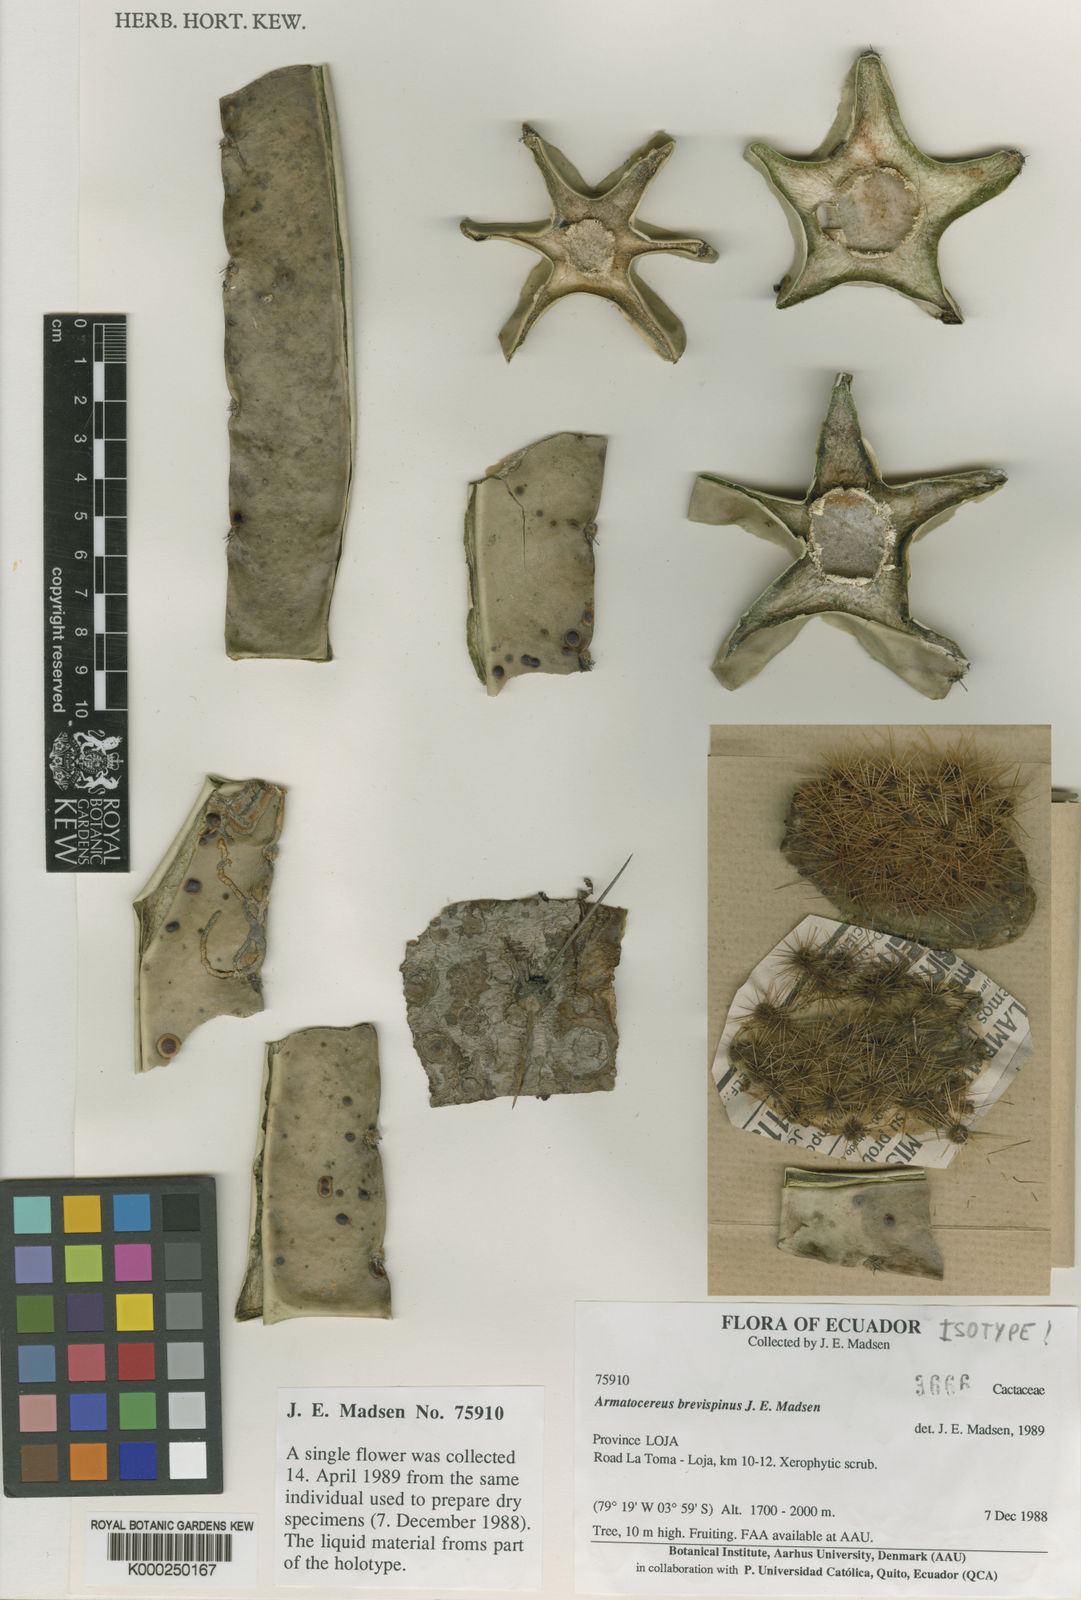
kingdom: Plantae
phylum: Tracheophyta
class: Magnoliopsida
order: Caryophyllales
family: Cactaceae
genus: Armatocereus
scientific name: Armatocereus godingianus
